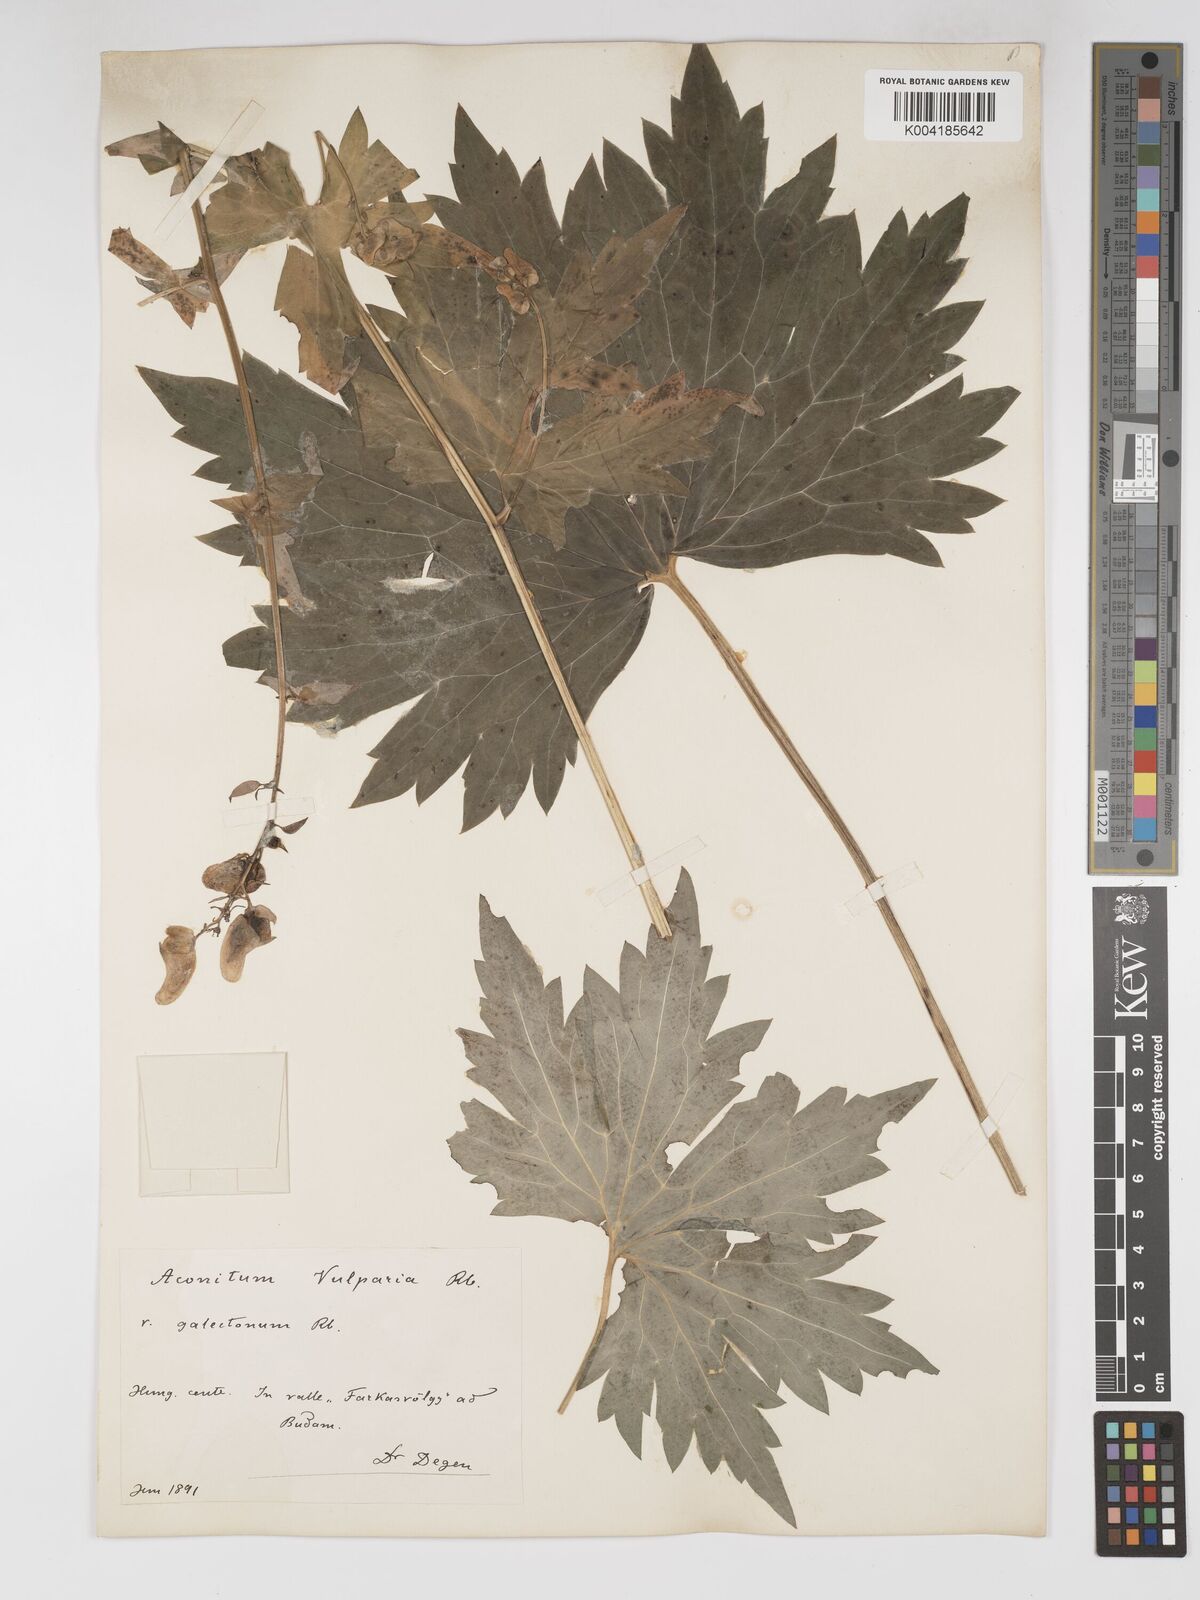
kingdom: Plantae
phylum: Tracheophyta
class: Magnoliopsida
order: Ranunculales
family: Ranunculaceae
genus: Aconitum
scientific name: Aconitum lycoctonum
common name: Wolf's-bane
